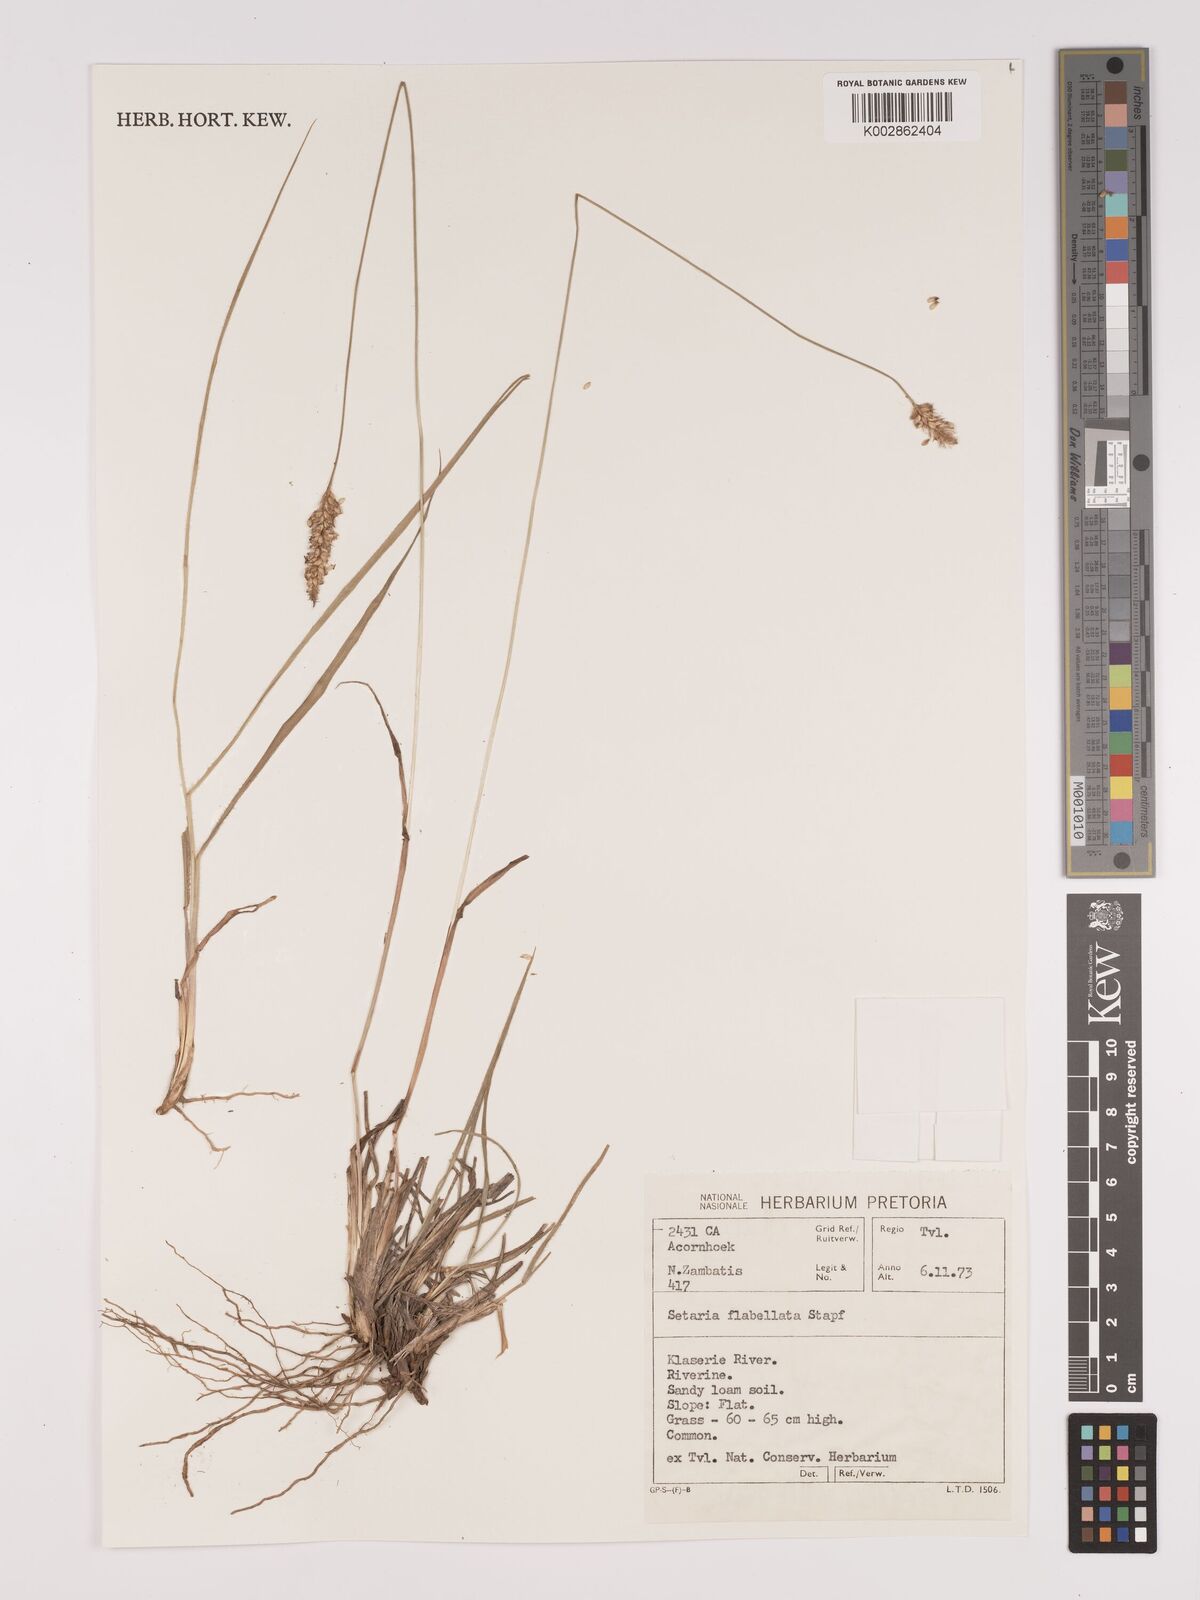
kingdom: Plantae
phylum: Tracheophyta
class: Liliopsida
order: Poales
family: Poaceae
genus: Setaria
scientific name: Setaria sphacelata
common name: African bristlegrass
